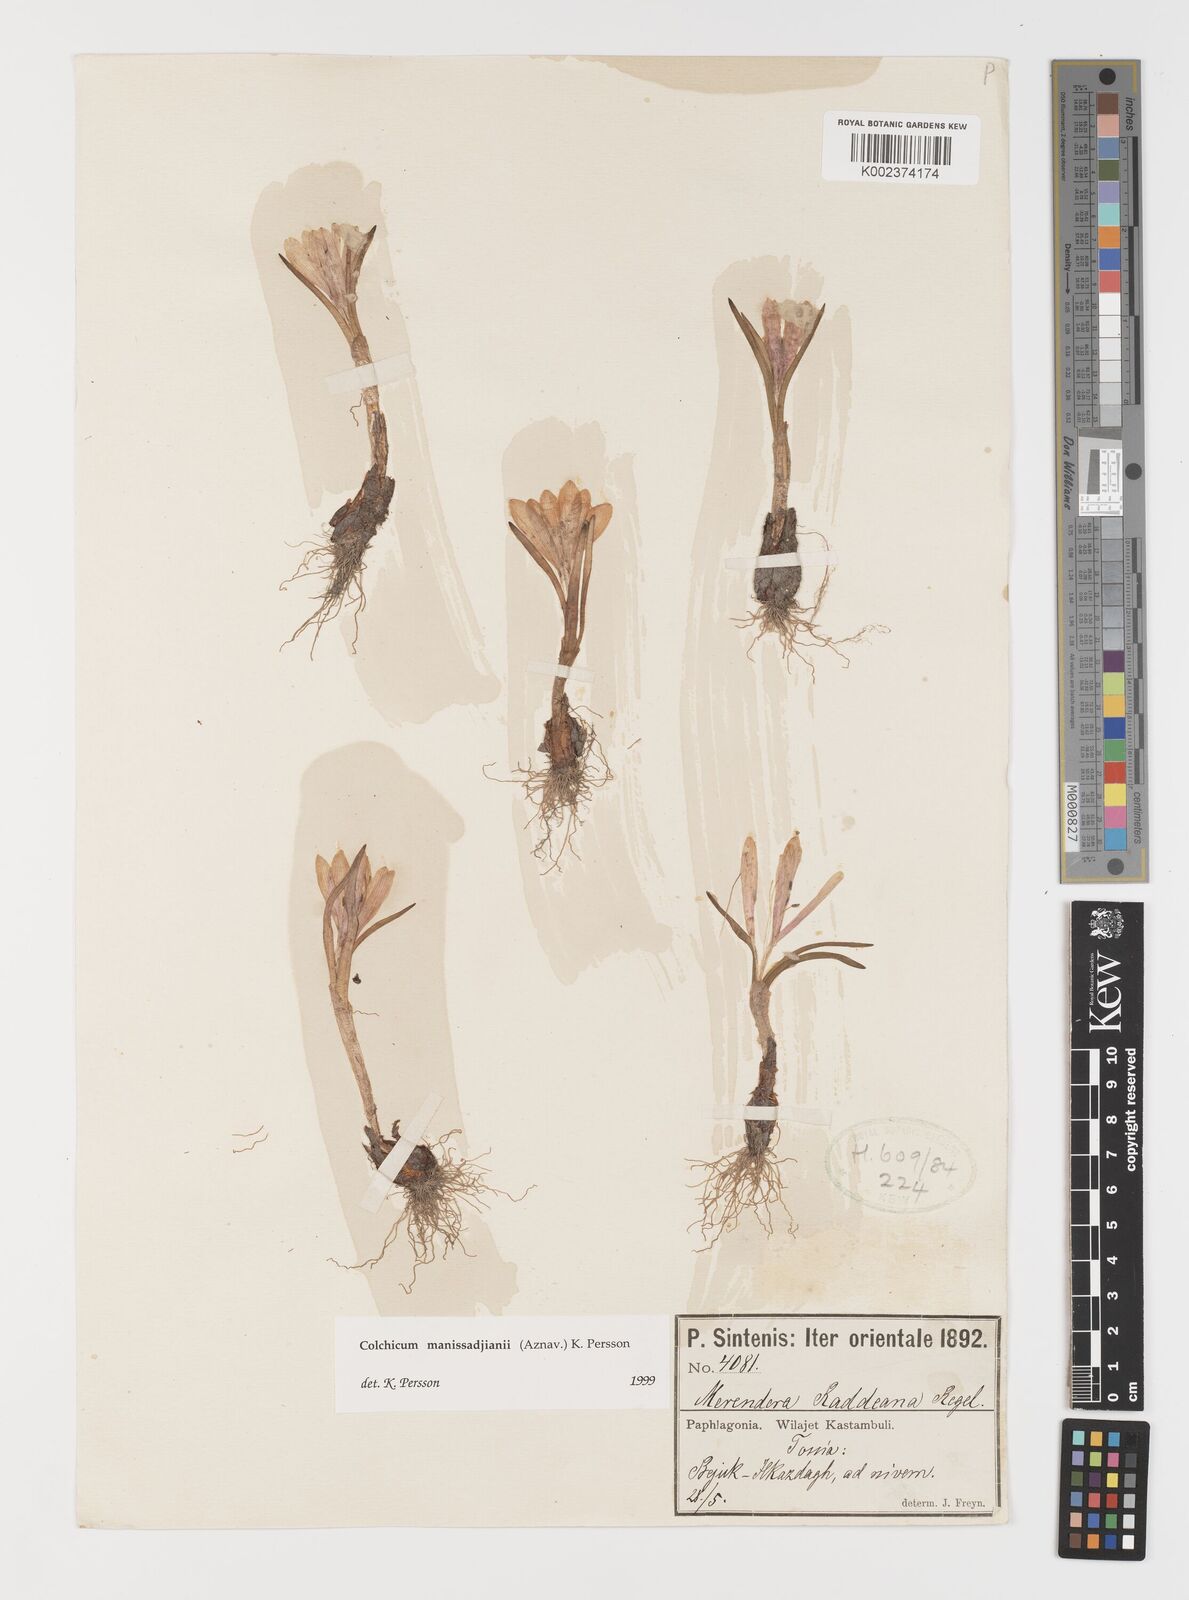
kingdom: Plantae
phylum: Tracheophyta
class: Liliopsida
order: Liliales
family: Colchicaceae
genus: Colchicum
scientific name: Colchicum manissadjianii
